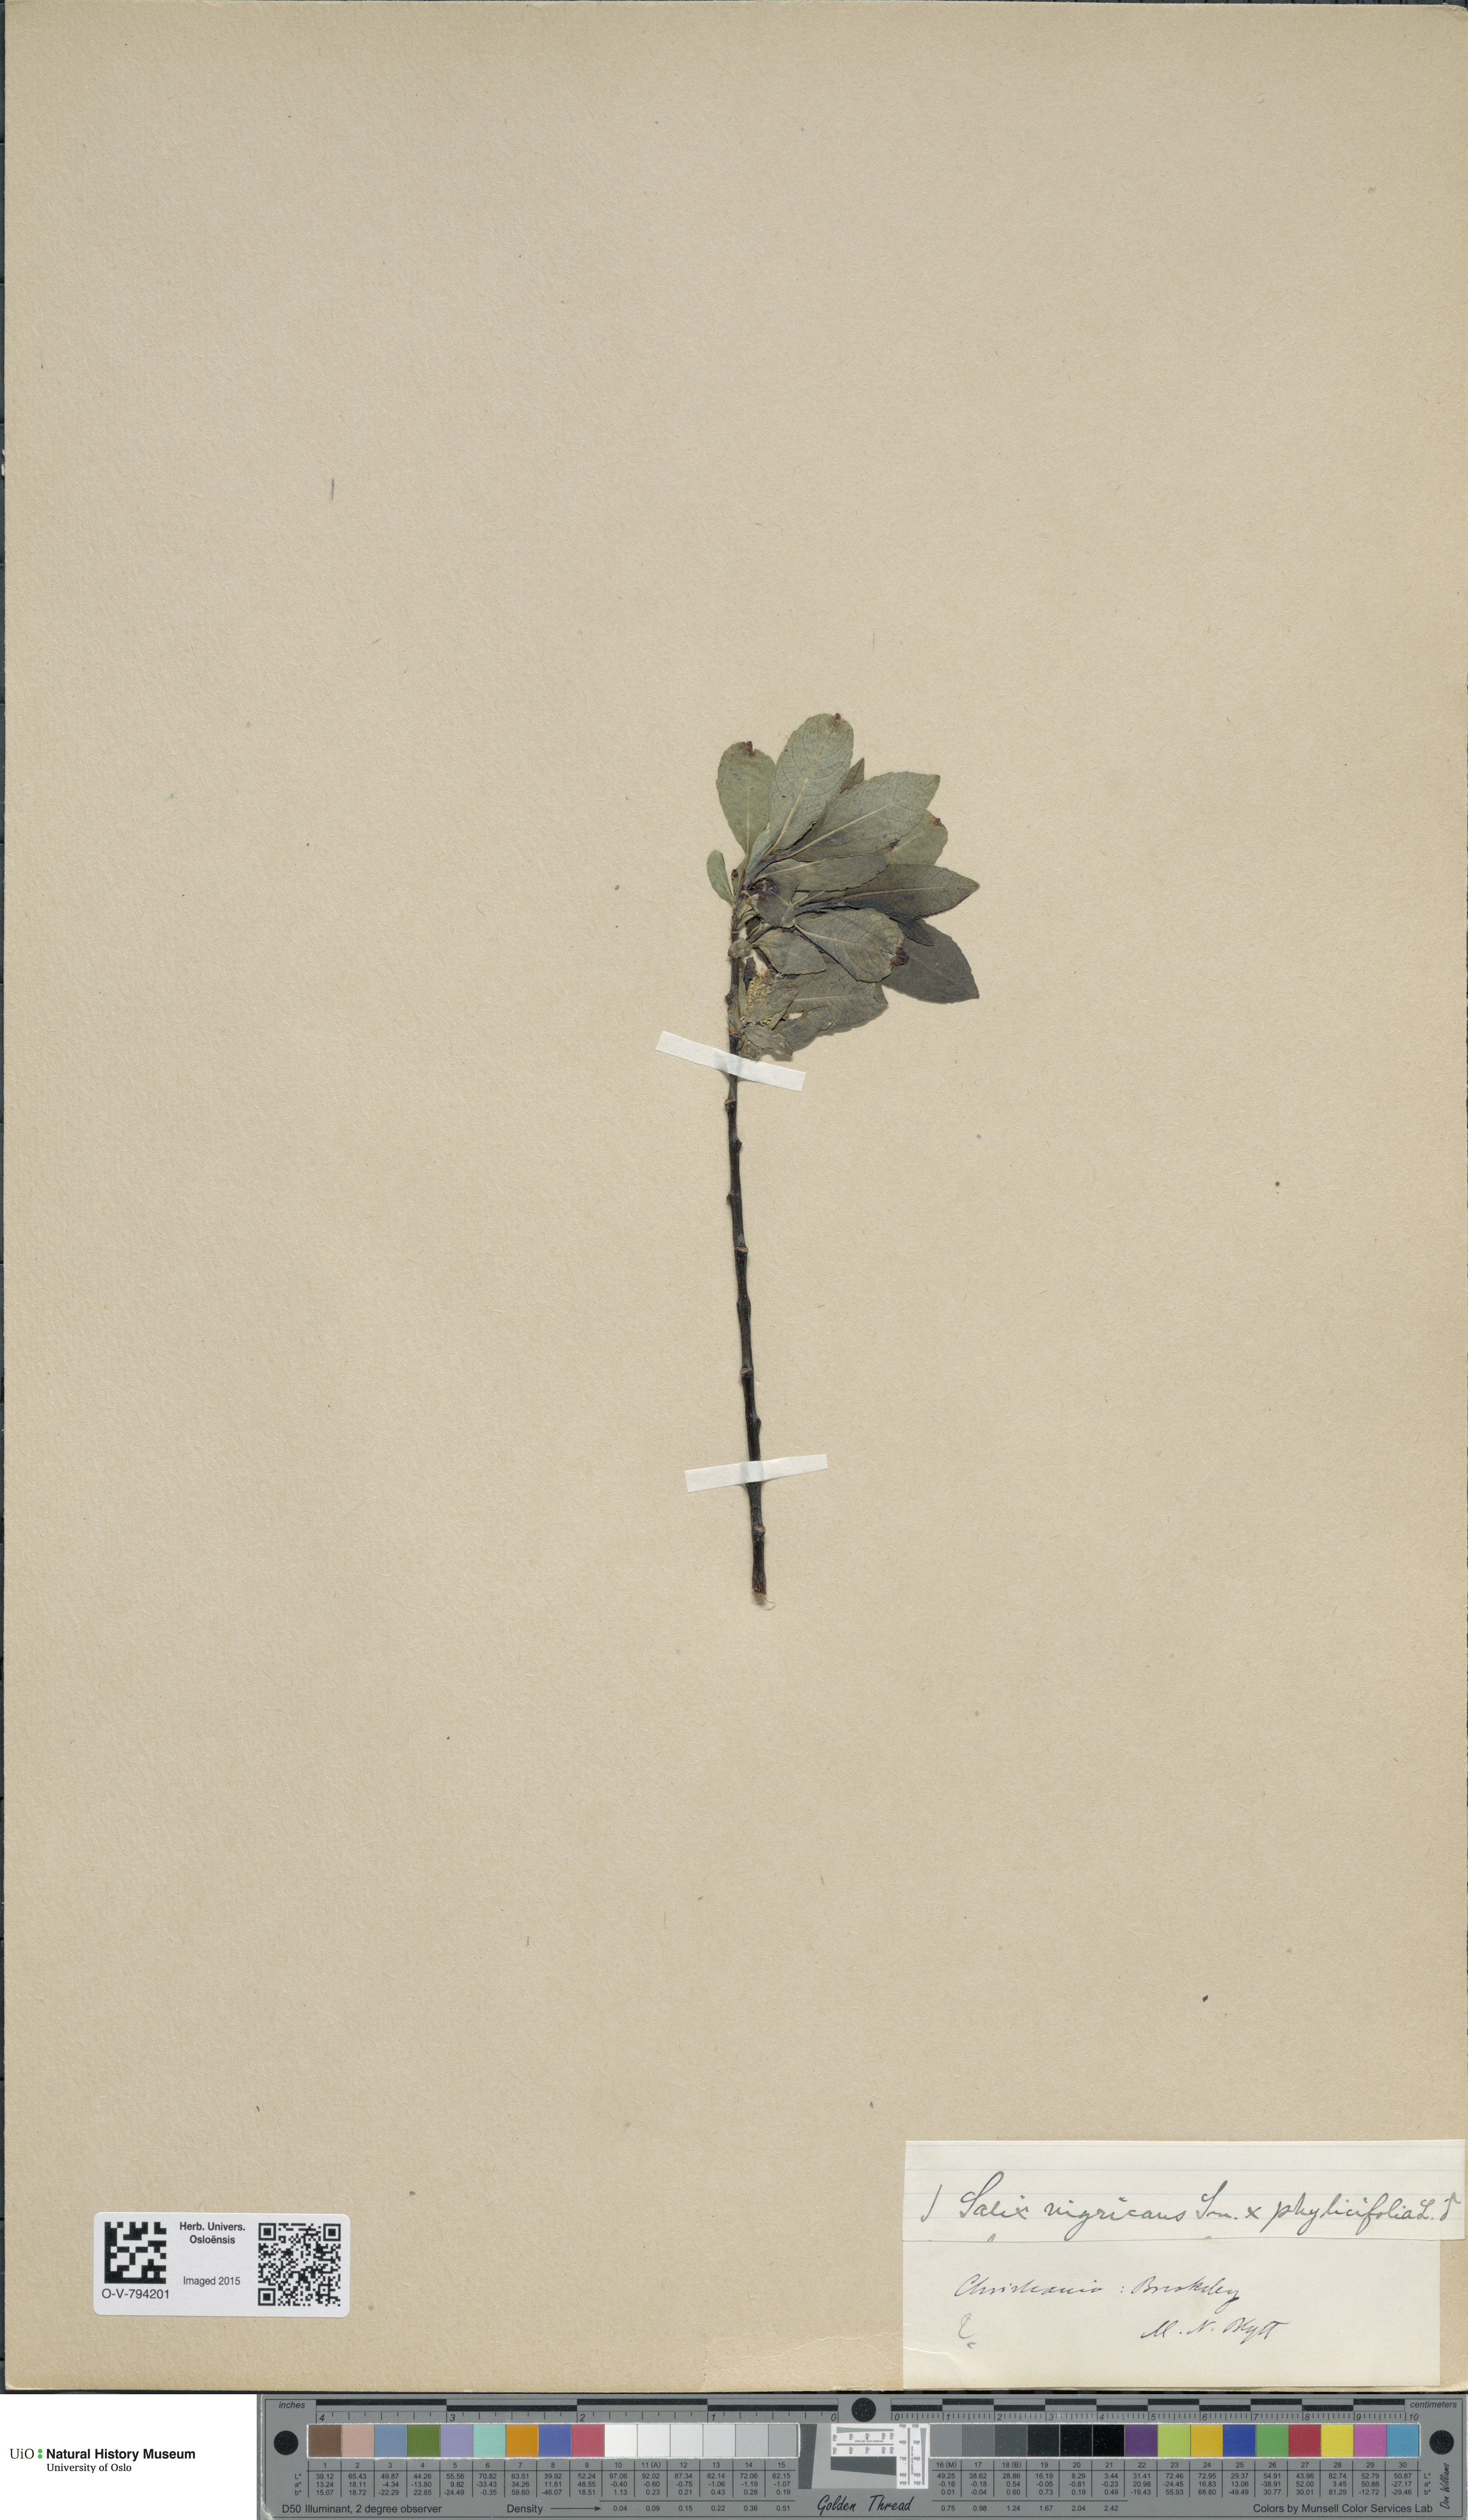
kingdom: Plantae
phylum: Tracheophyta
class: Magnoliopsida
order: Malpighiales
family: Salicaceae
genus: Salix
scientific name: Salix
